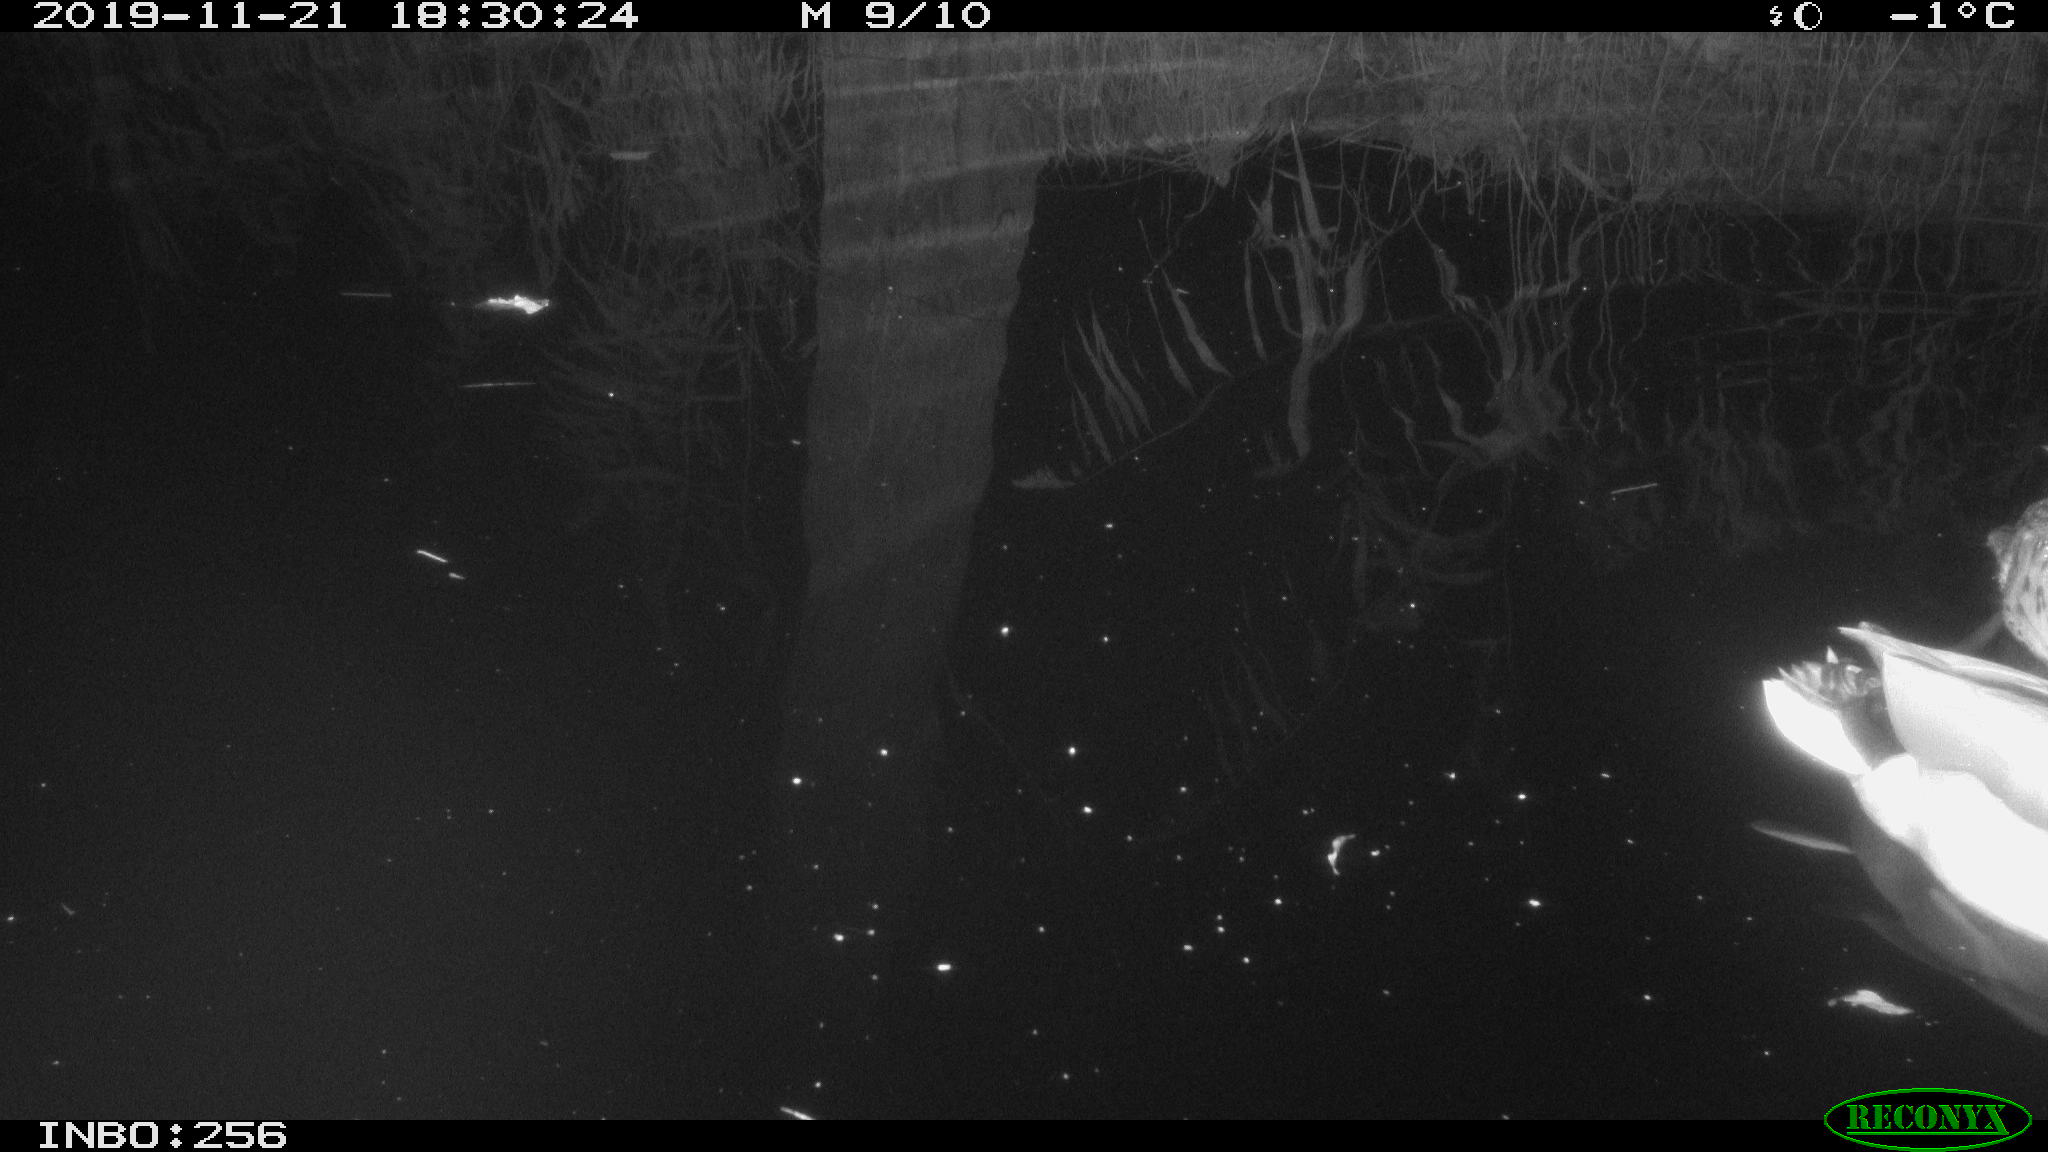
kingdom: Animalia
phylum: Chordata
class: Aves
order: Anseriformes
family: Anatidae
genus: Anas
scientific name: Anas platyrhynchos
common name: Mallard
